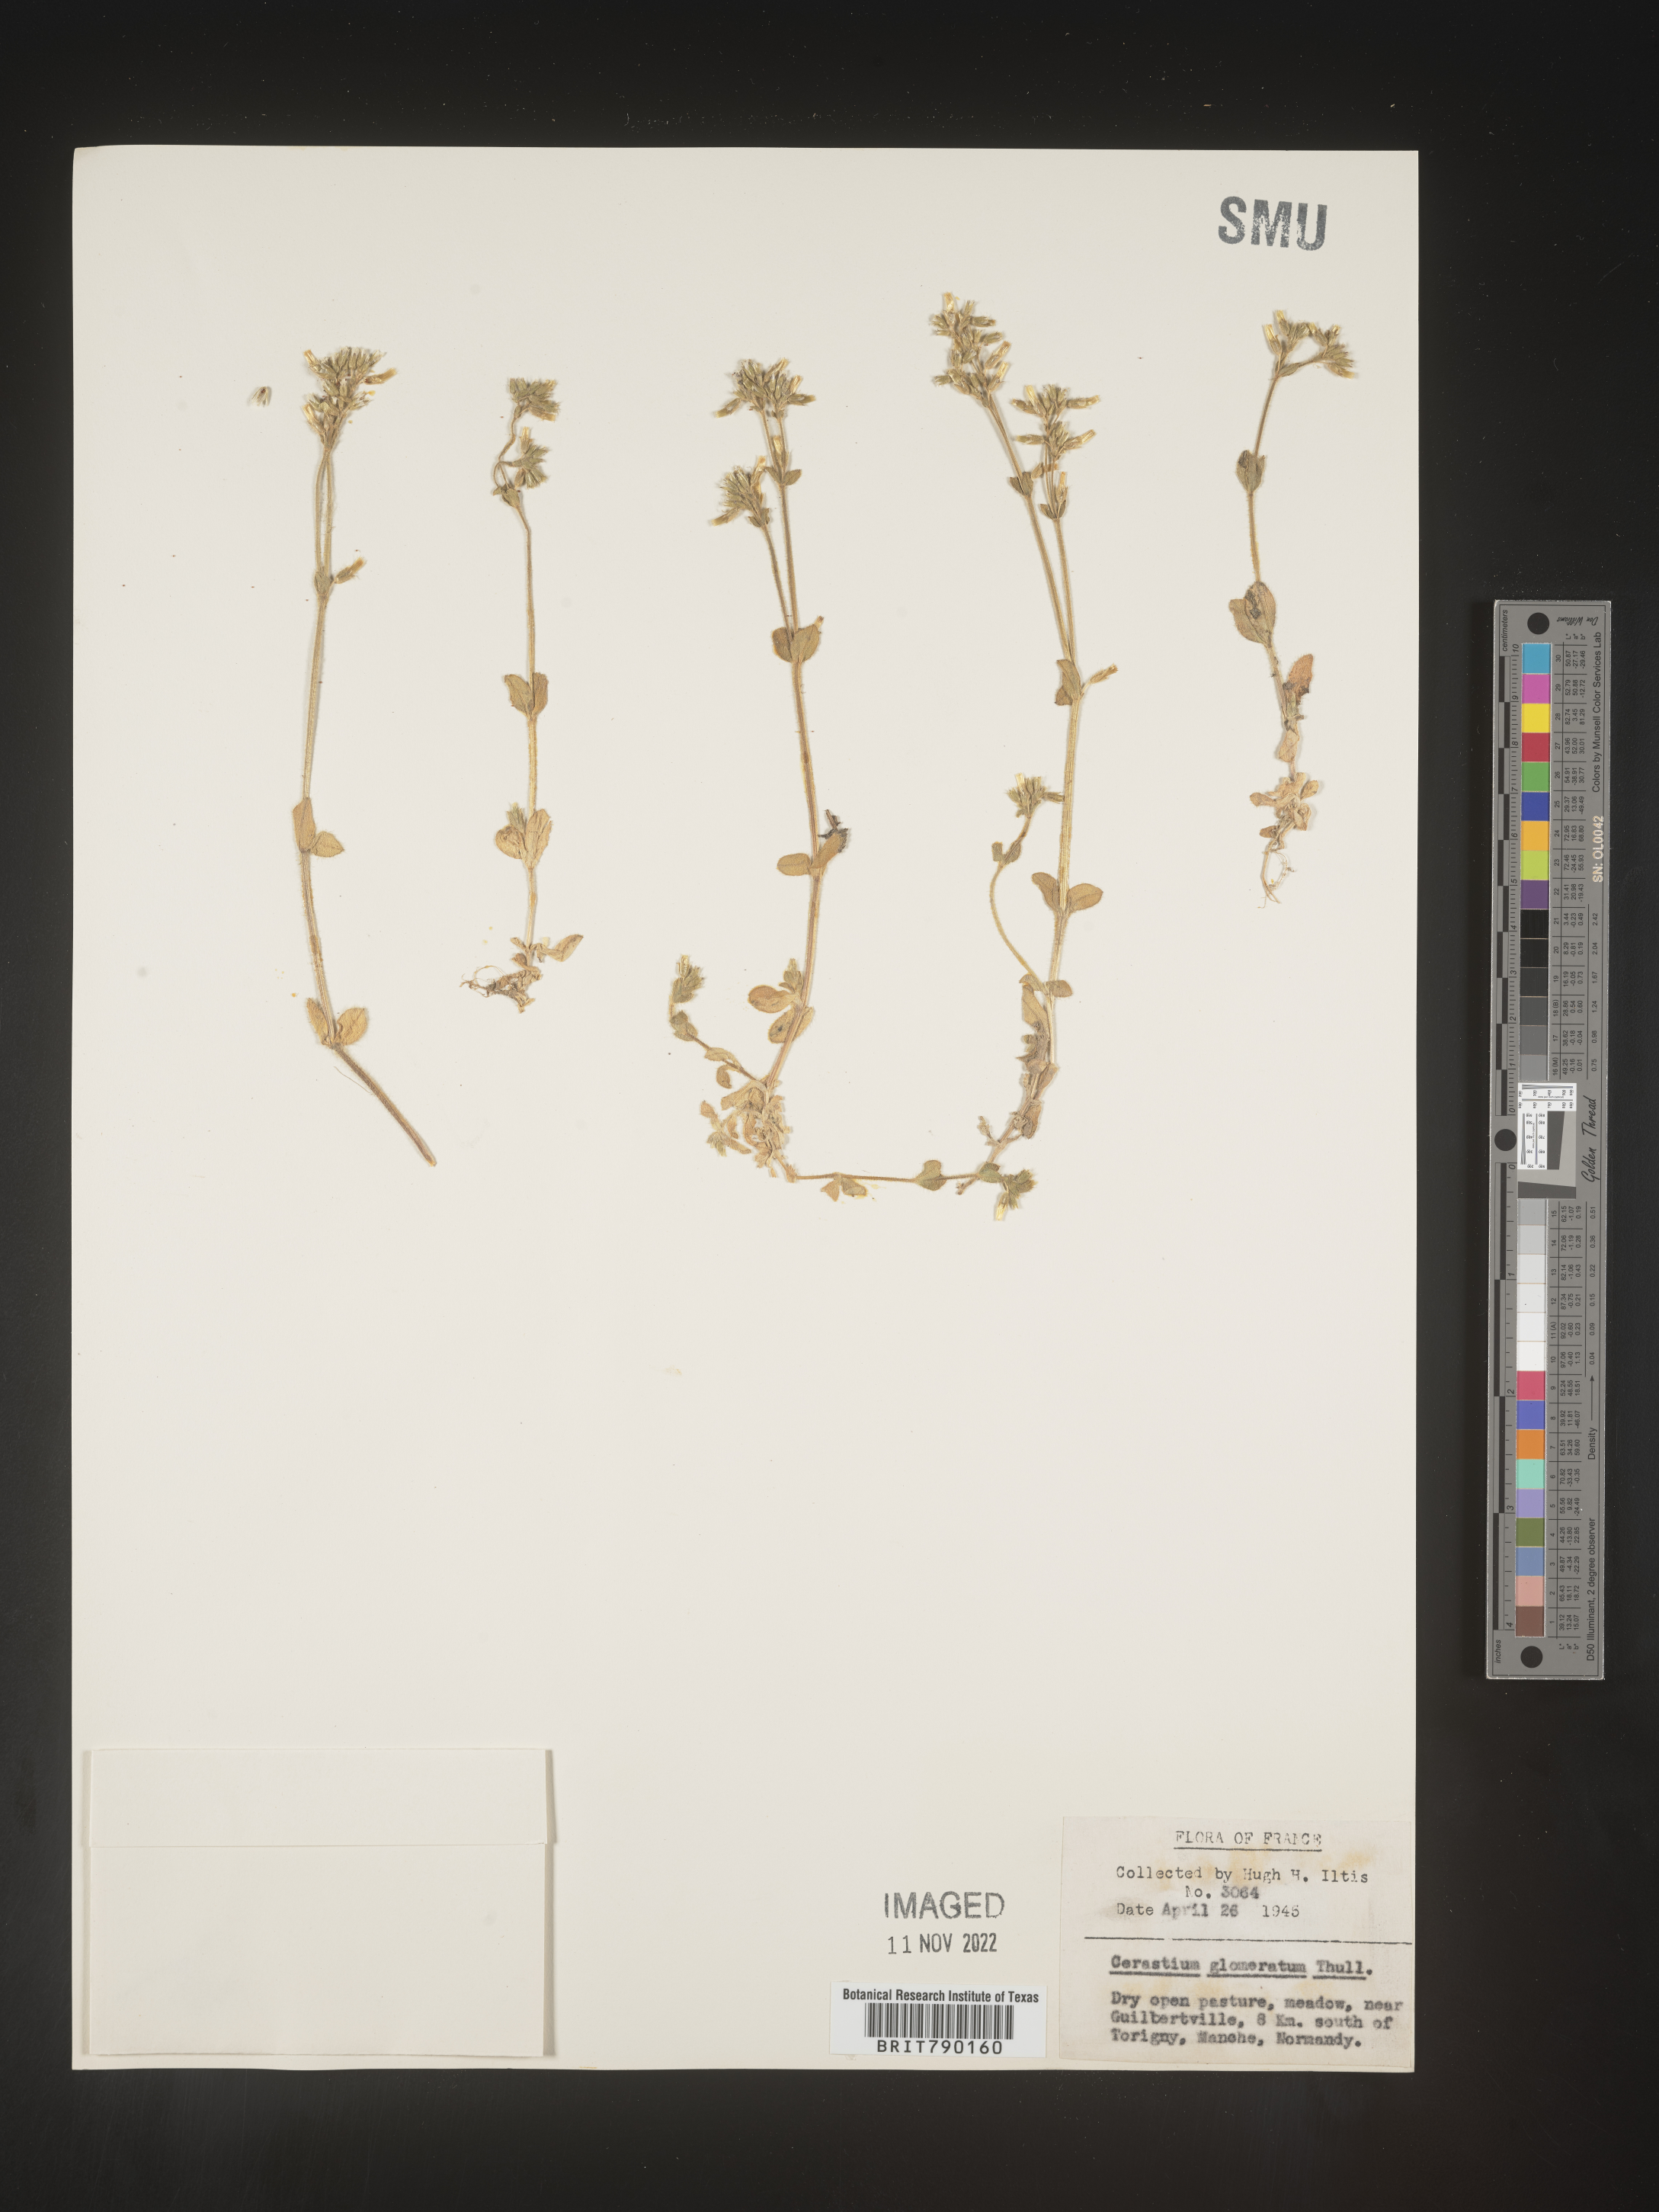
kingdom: Plantae
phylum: Tracheophyta
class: Magnoliopsida
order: Caryophyllales
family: Caryophyllaceae
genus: Cerastium
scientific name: Cerastium
